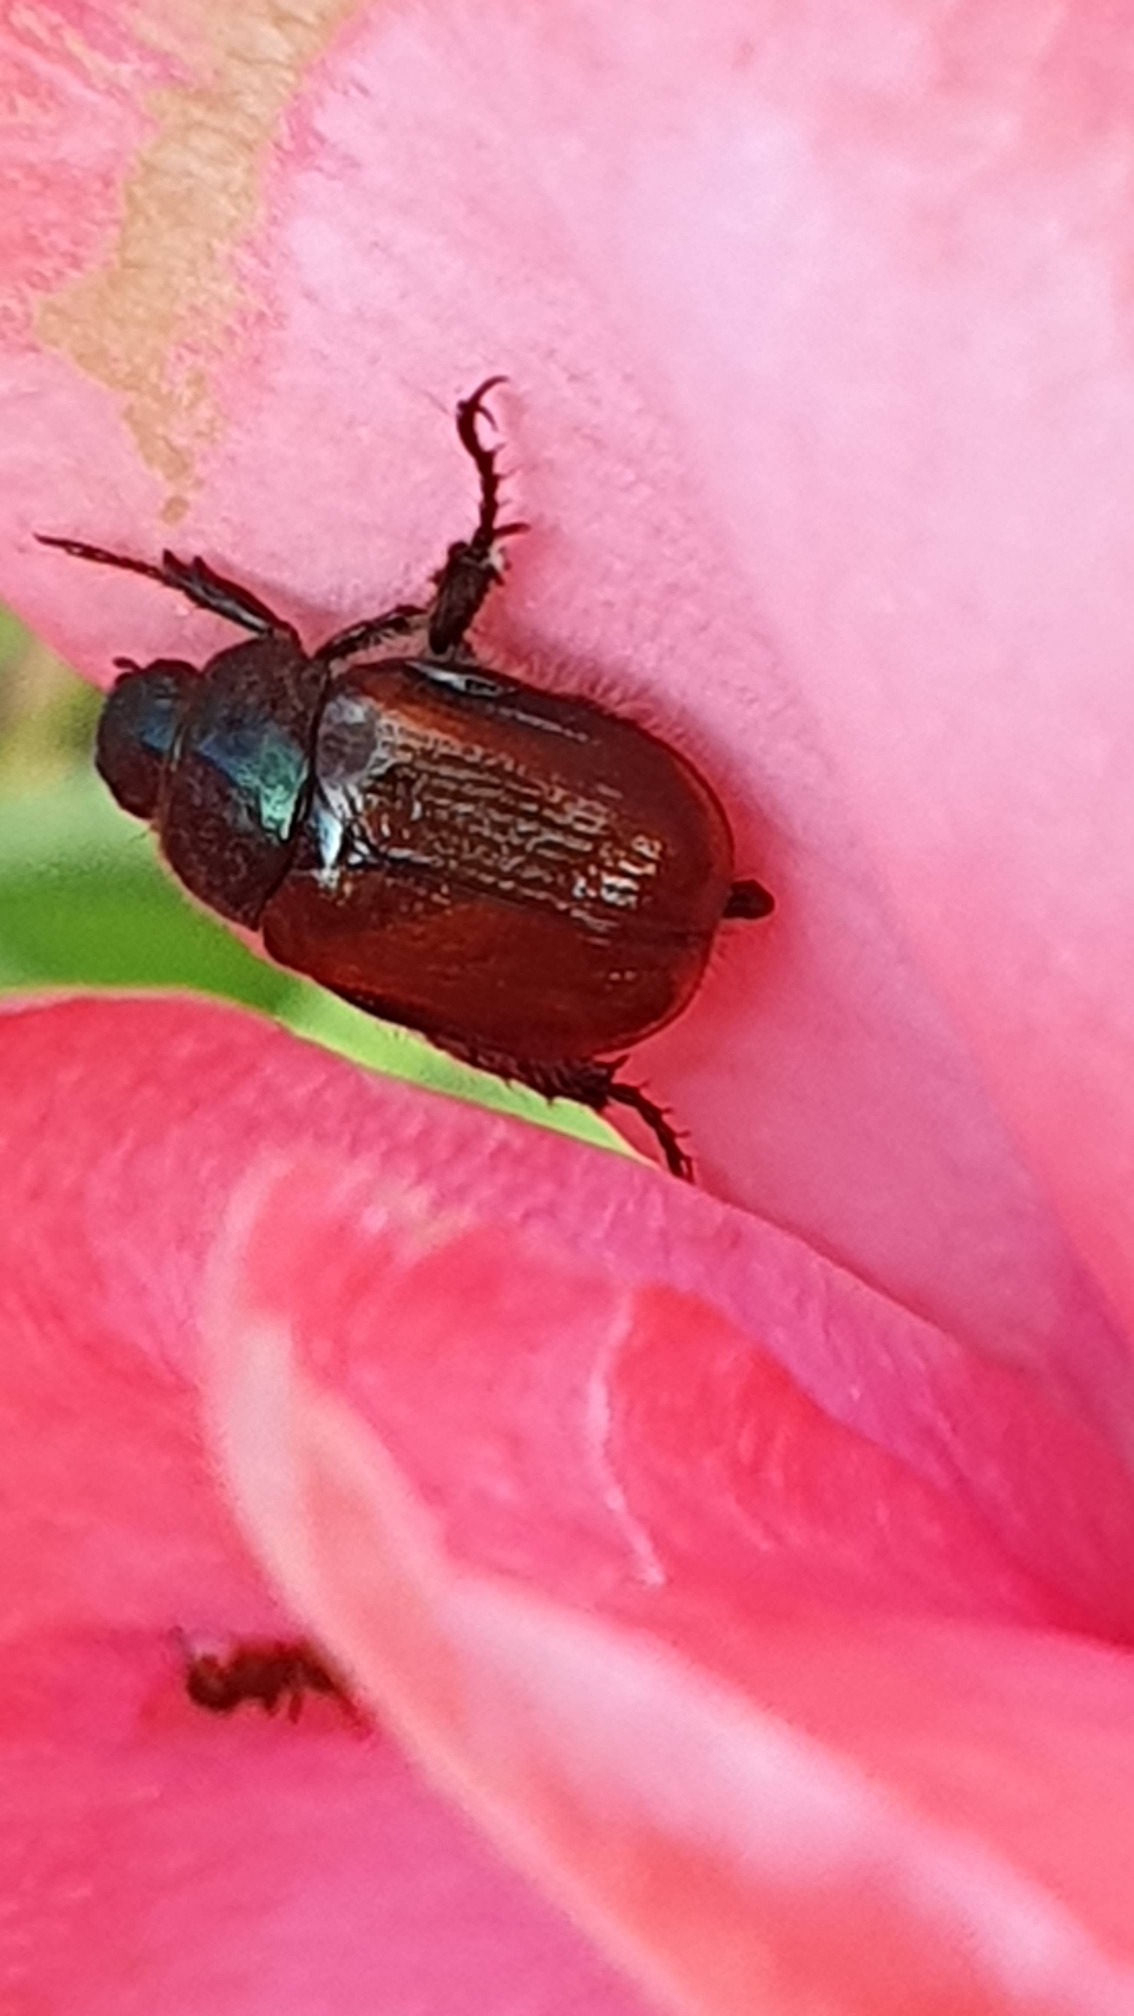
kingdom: Animalia
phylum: Arthropoda
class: Insecta
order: Coleoptera
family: Scarabaeidae
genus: Phyllopertha
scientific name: Phyllopertha horticola
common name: Gåsebille
